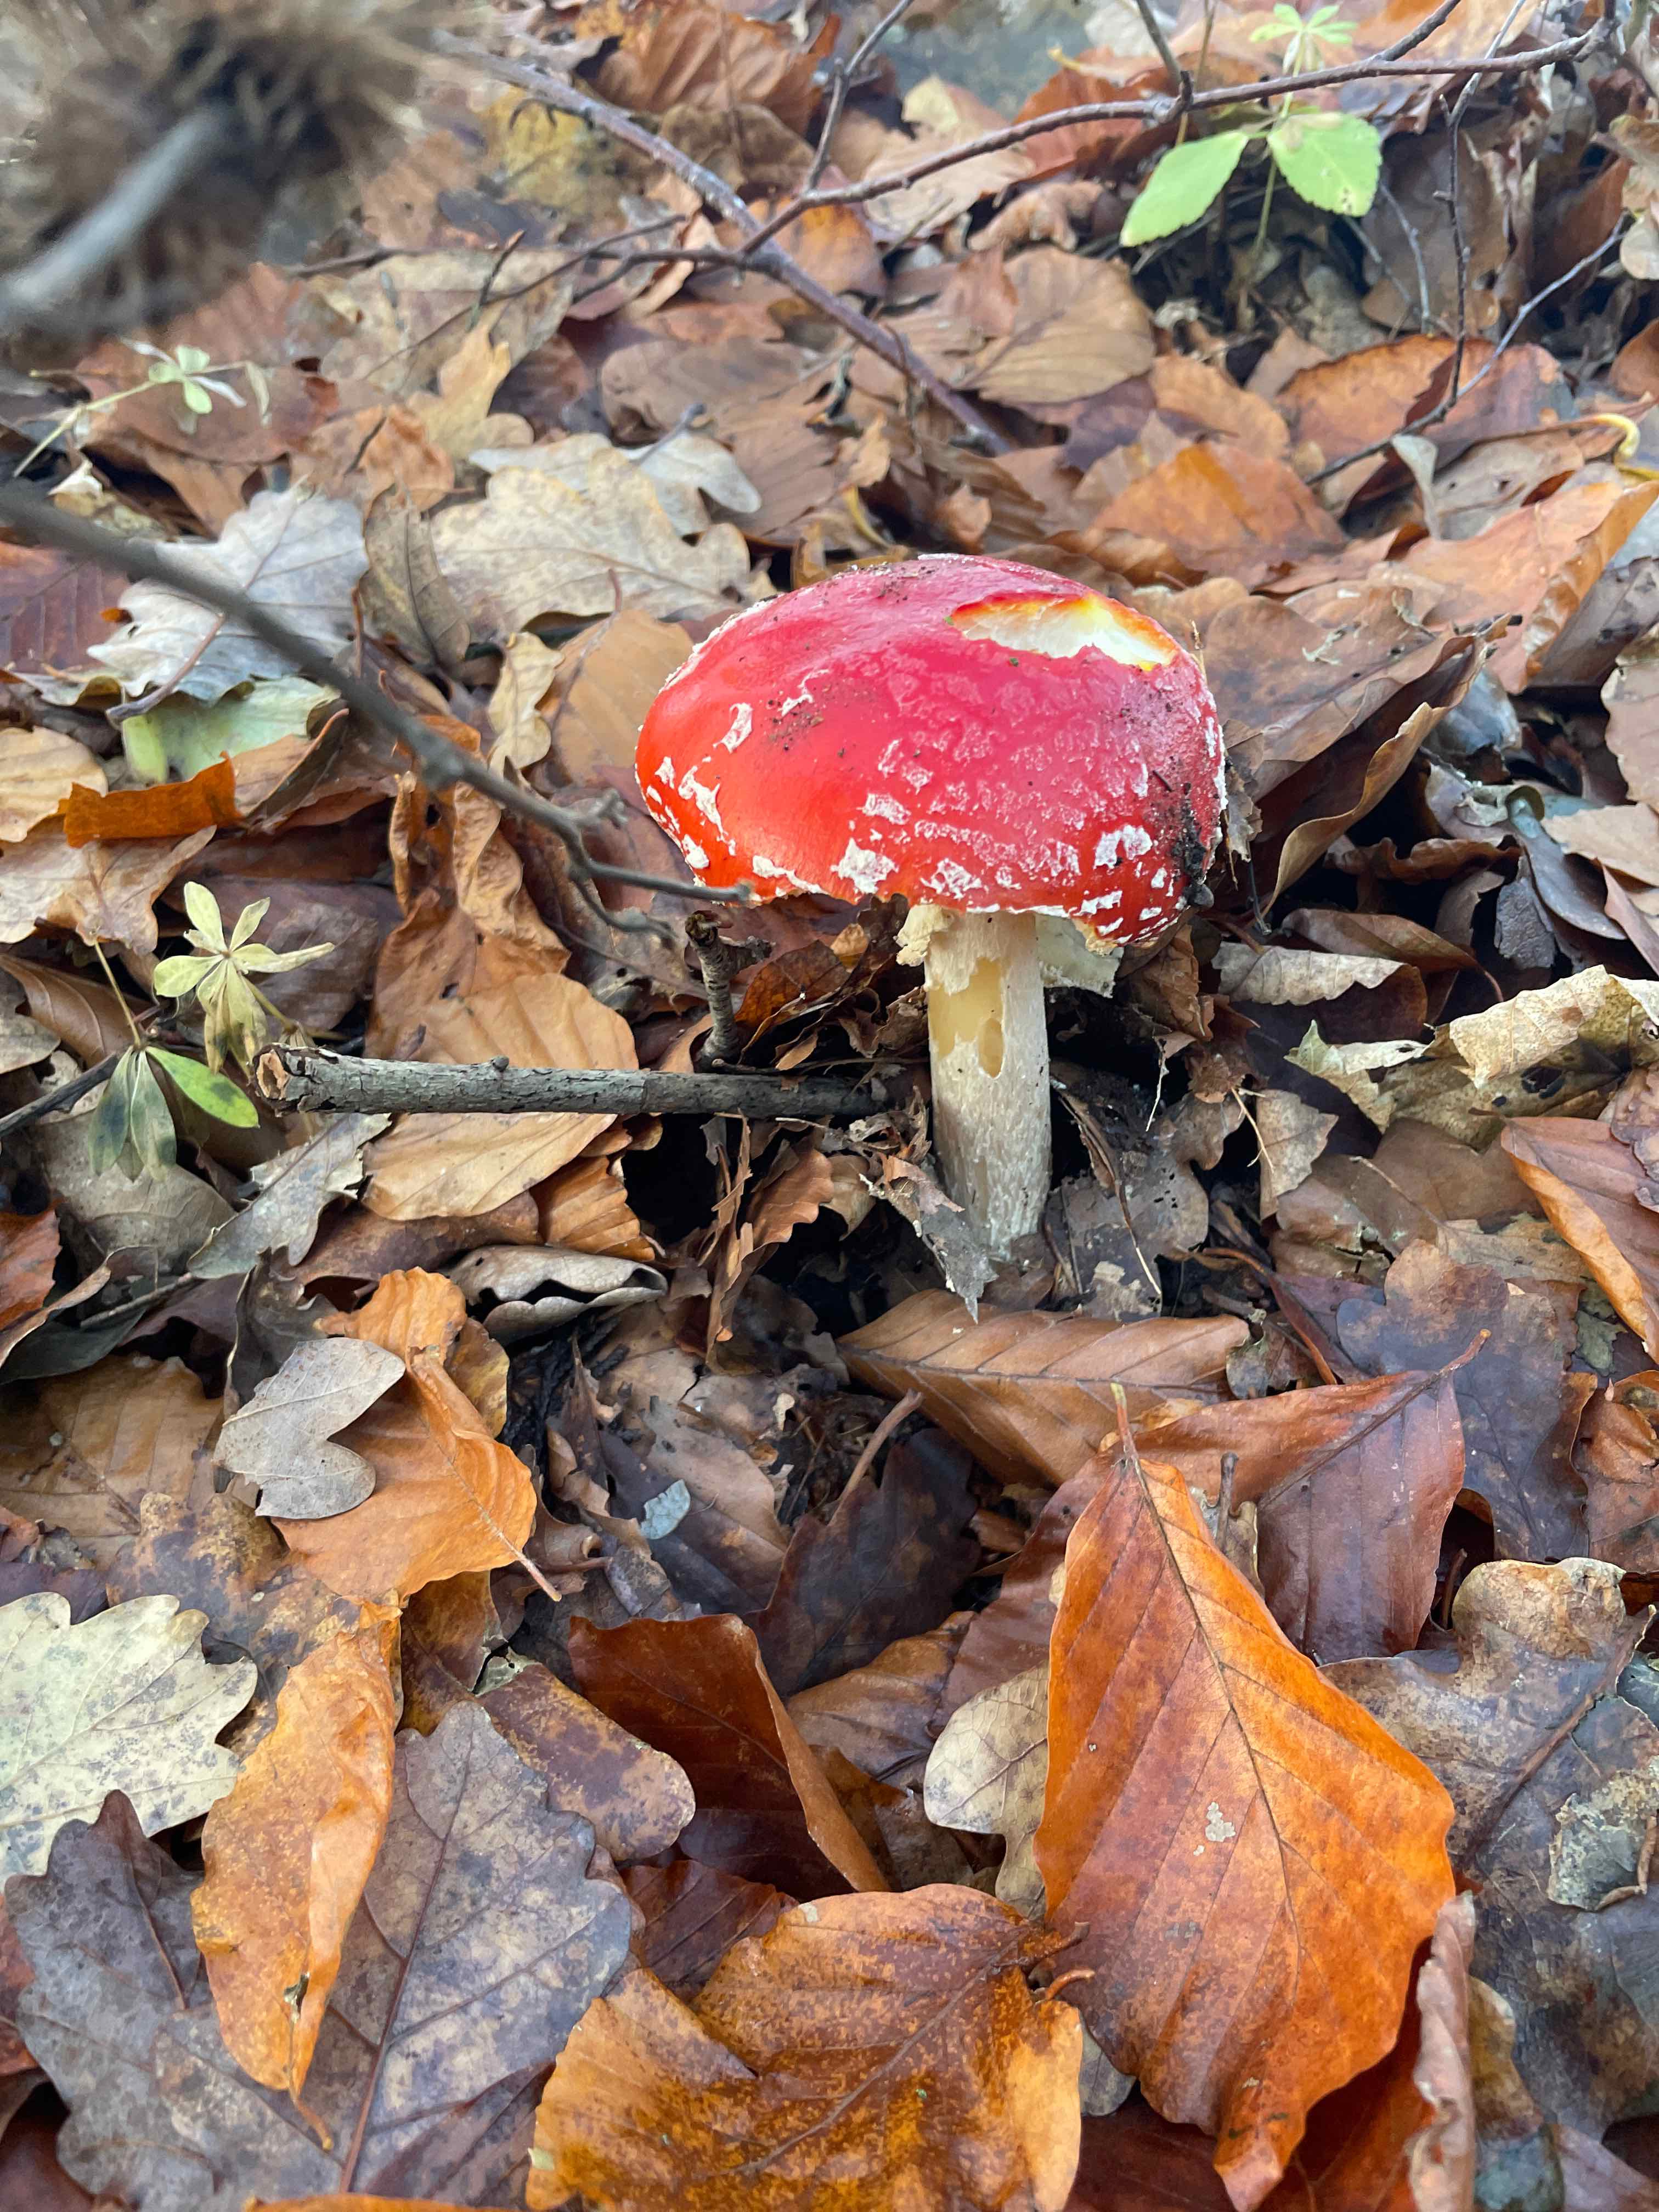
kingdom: Fungi
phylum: Basidiomycota
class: Agaricomycetes
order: Agaricales
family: Amanitaceae
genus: Amanita
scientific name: Amanita muscaria
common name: rød fluesvamp
